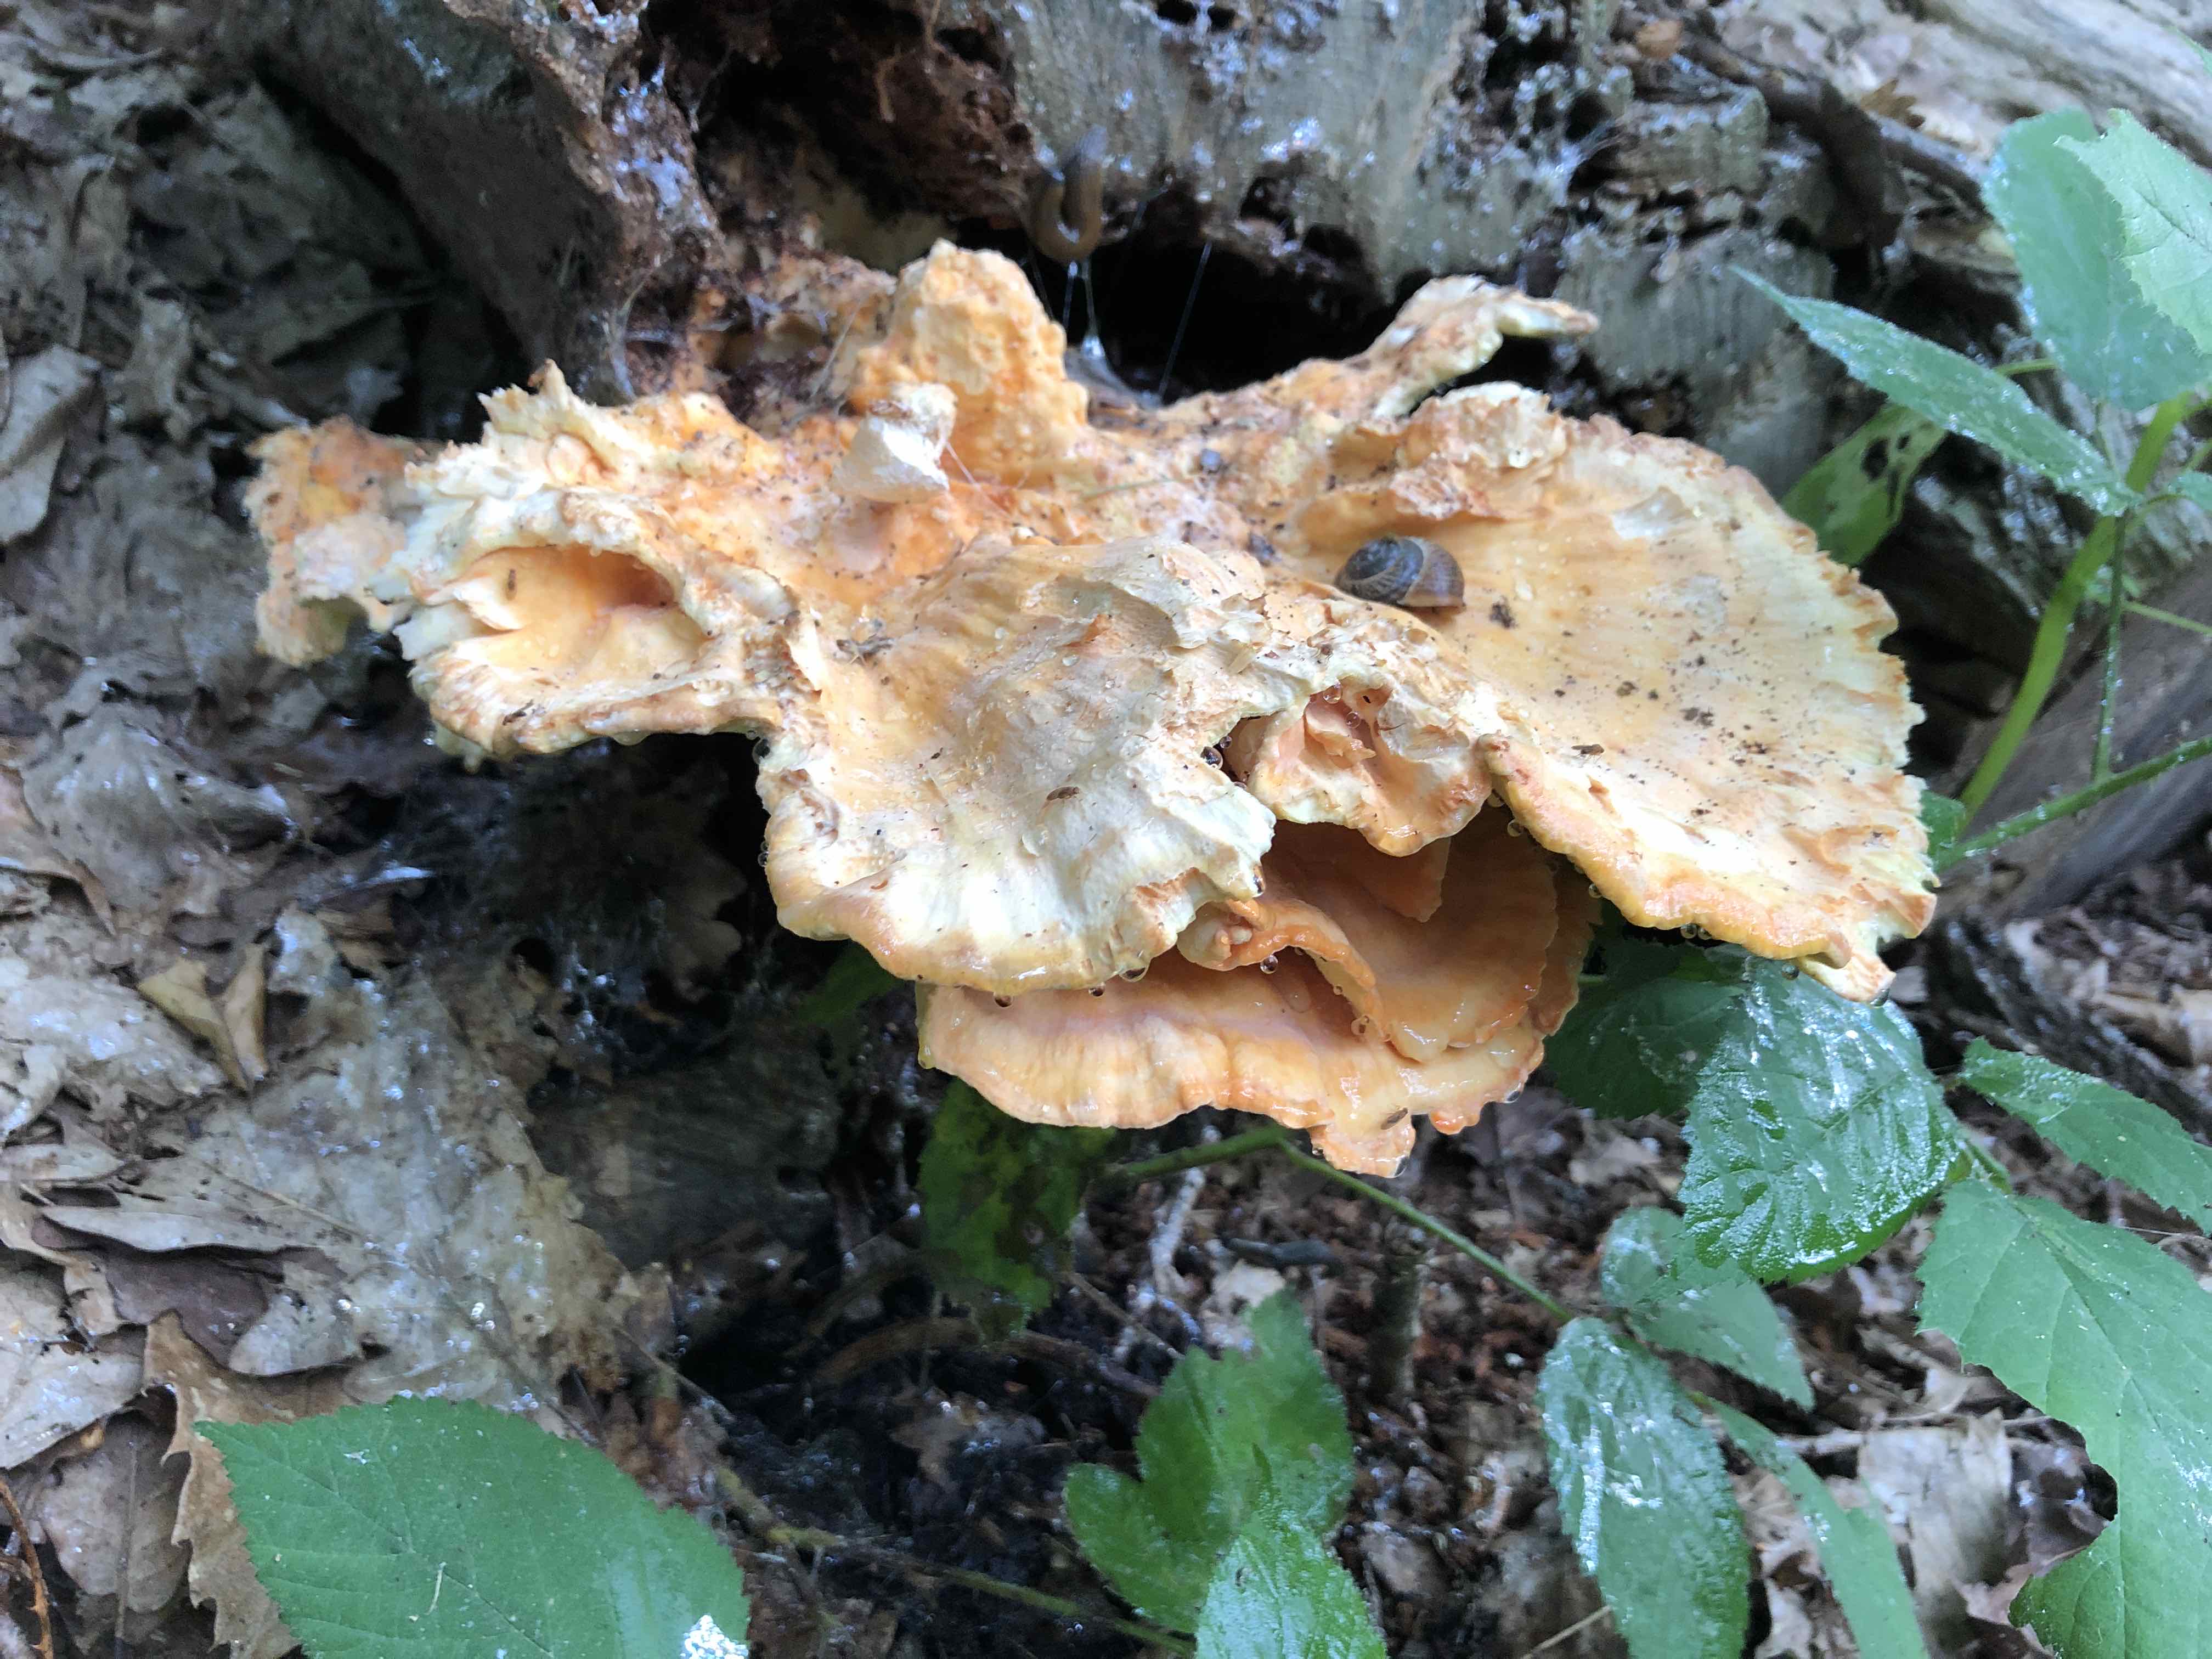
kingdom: Fungi
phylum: Basidiomycota
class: Agaricomycetes
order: Polyporales
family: Laetiporaceae
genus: Laetiporus
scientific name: Laetiporus sulphureus
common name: svovlporesvamp
